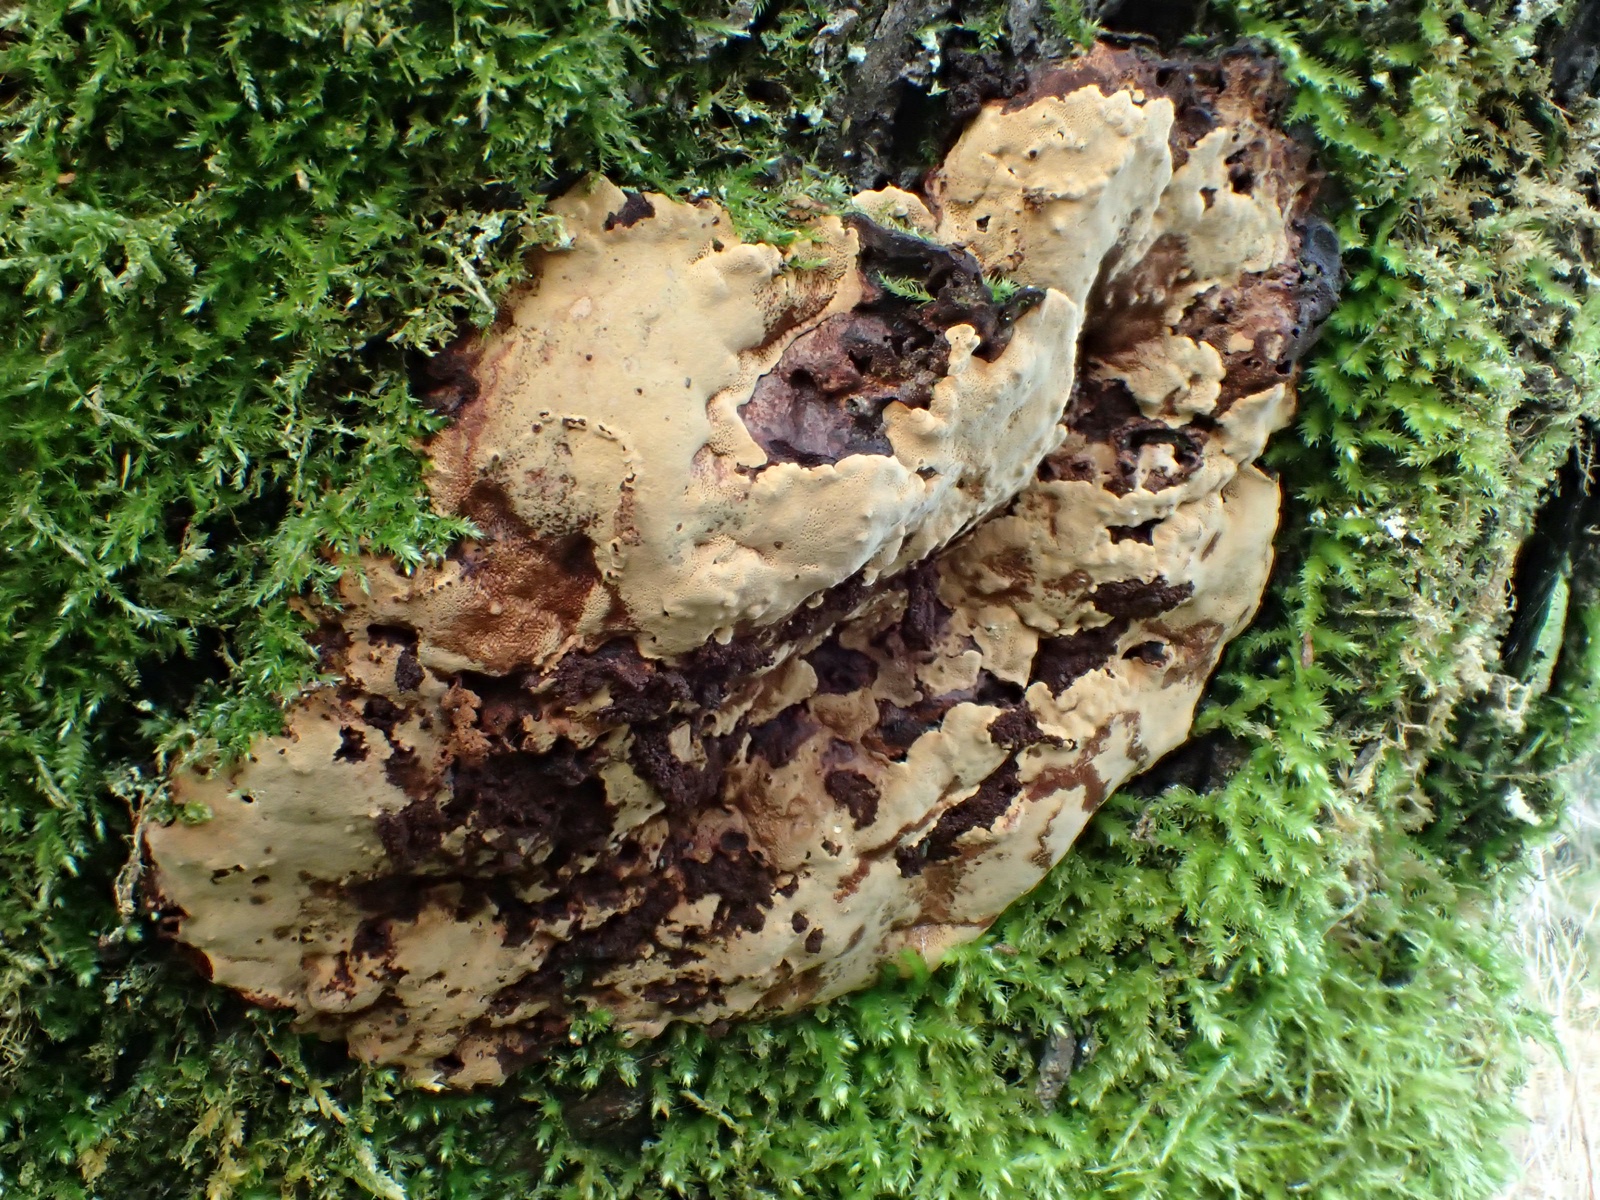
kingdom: Fungi
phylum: Basidiomycota
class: Agaricomycetes
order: Hymenochaetales
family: Hymenochaetaceae
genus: Phellinopsis
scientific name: Phellinopsis conchata
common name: pile-ildporesvamp
